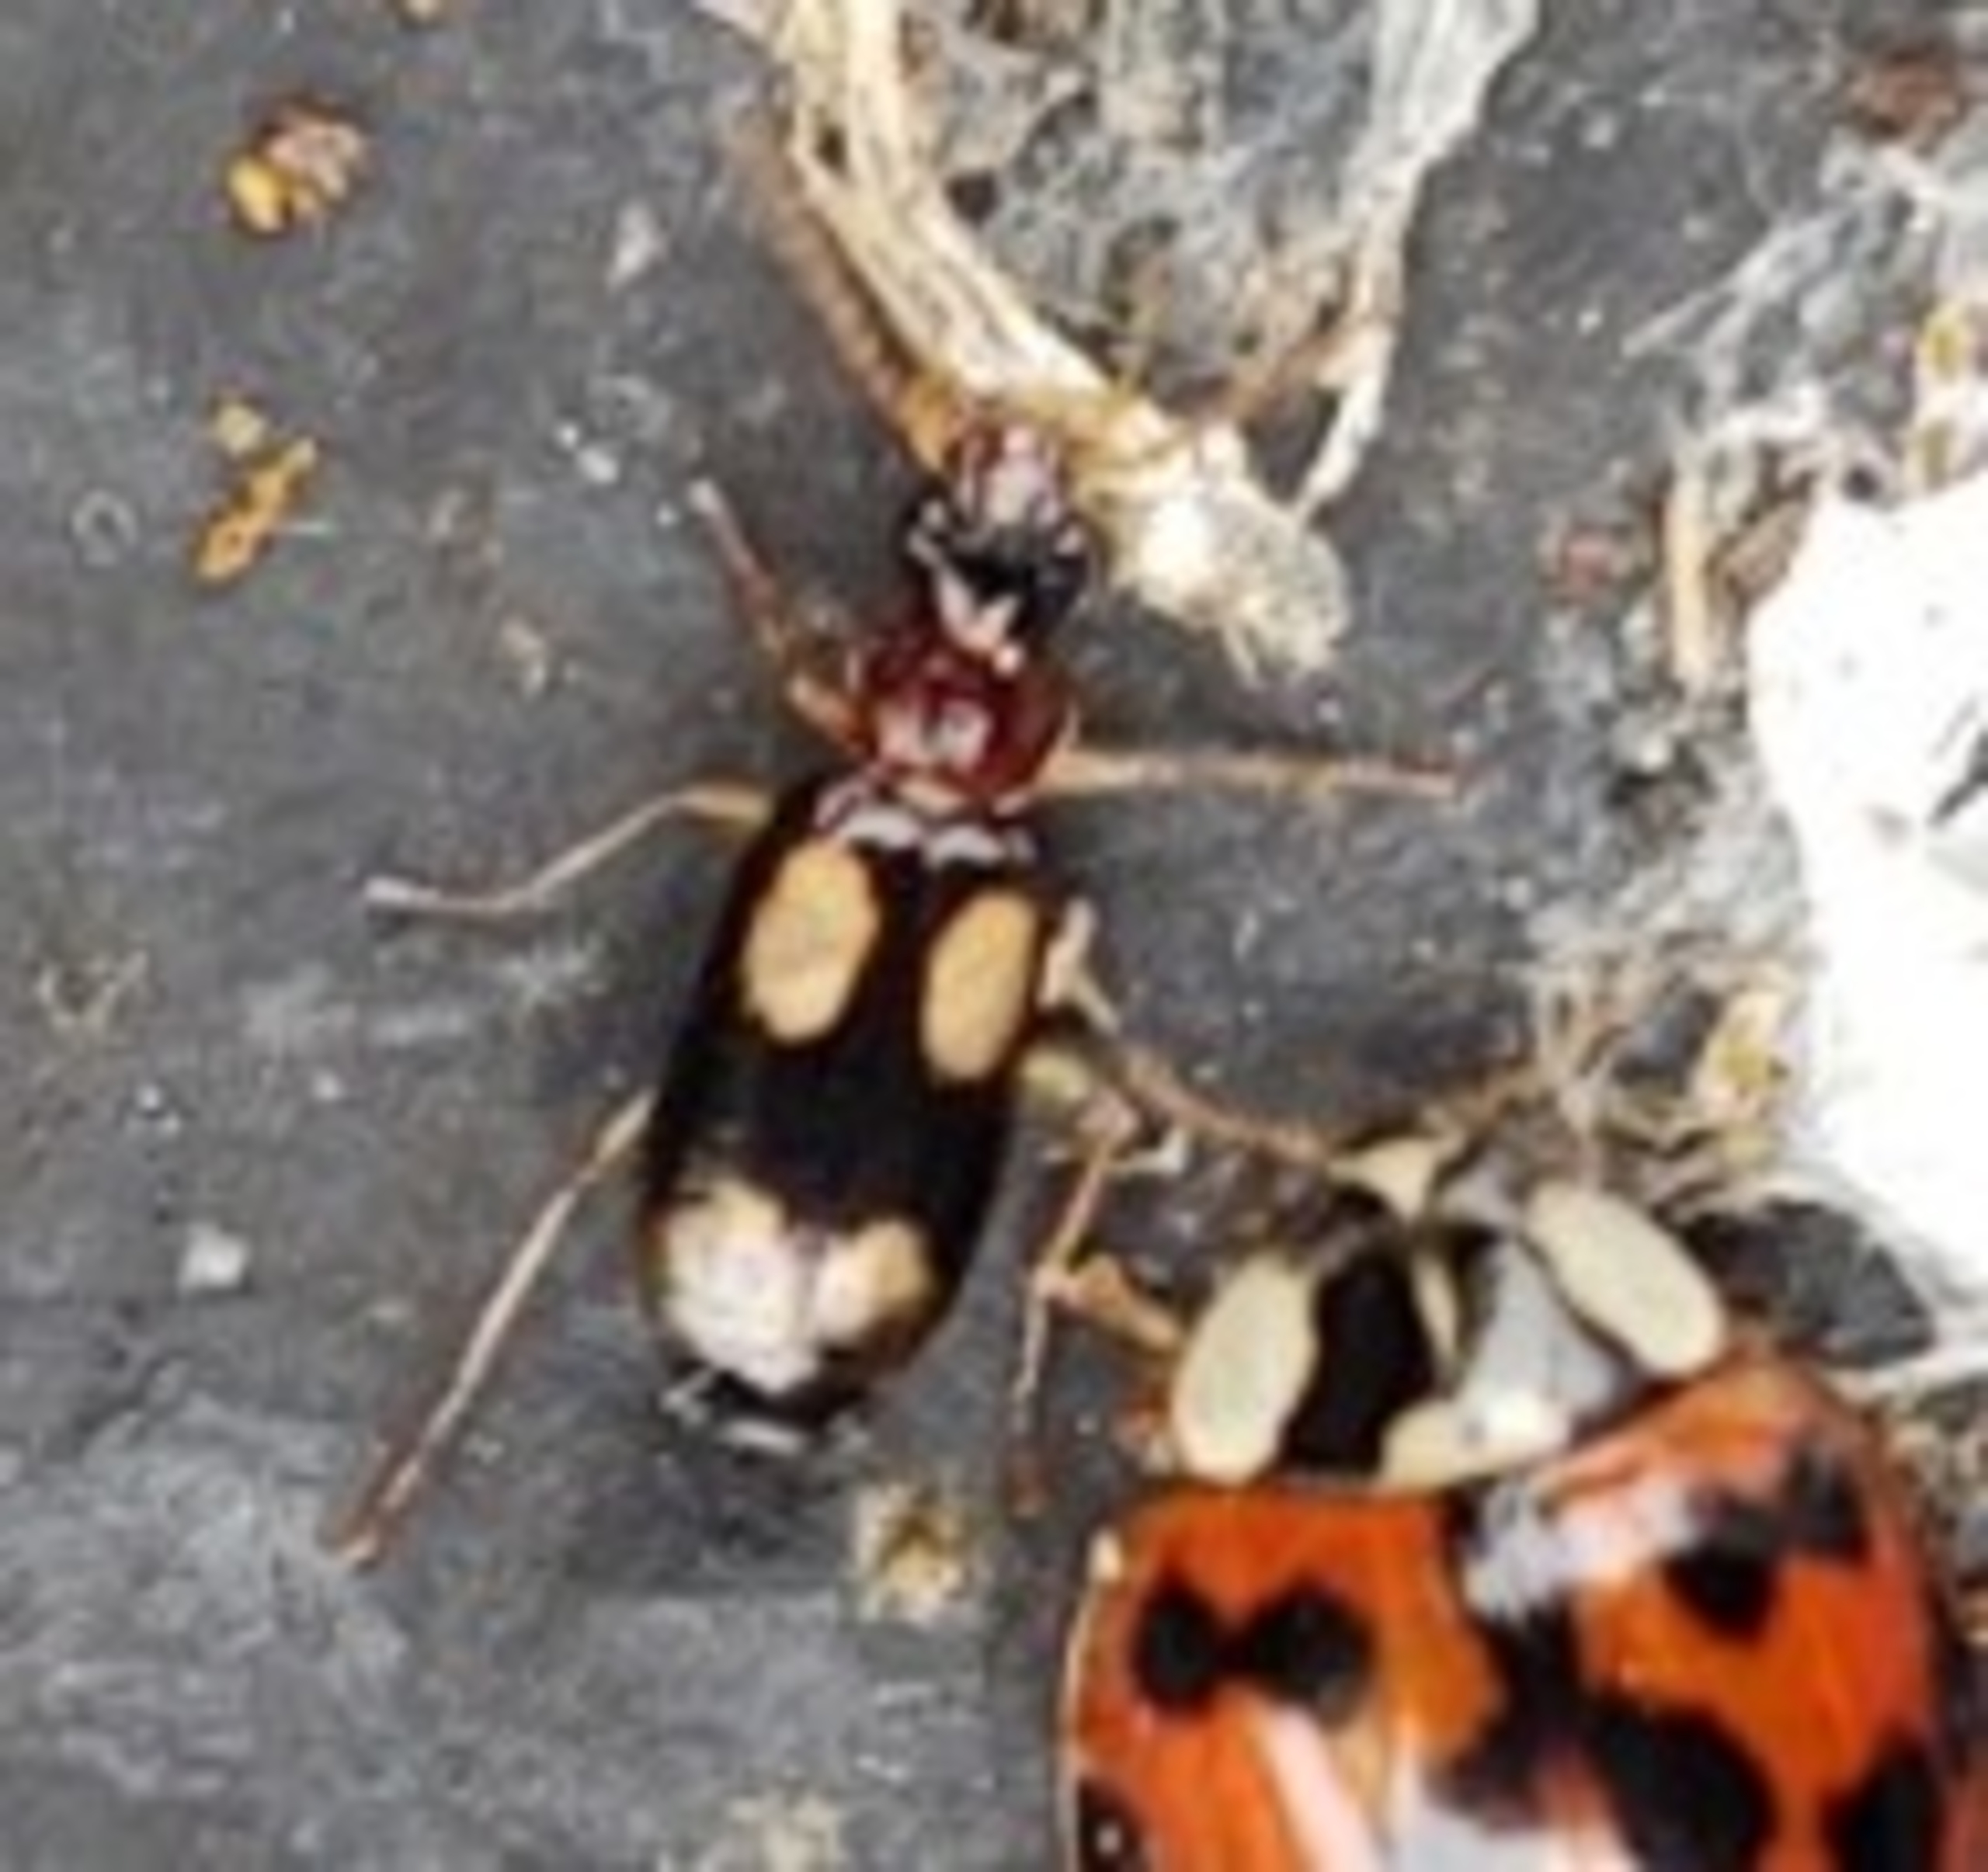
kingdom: Animalia
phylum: Arthropoda
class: Insecta
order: Coleoptera
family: Carabidae
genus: Dromius
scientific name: Dromius quadrimaculatus
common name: Fireplettet barkløber
